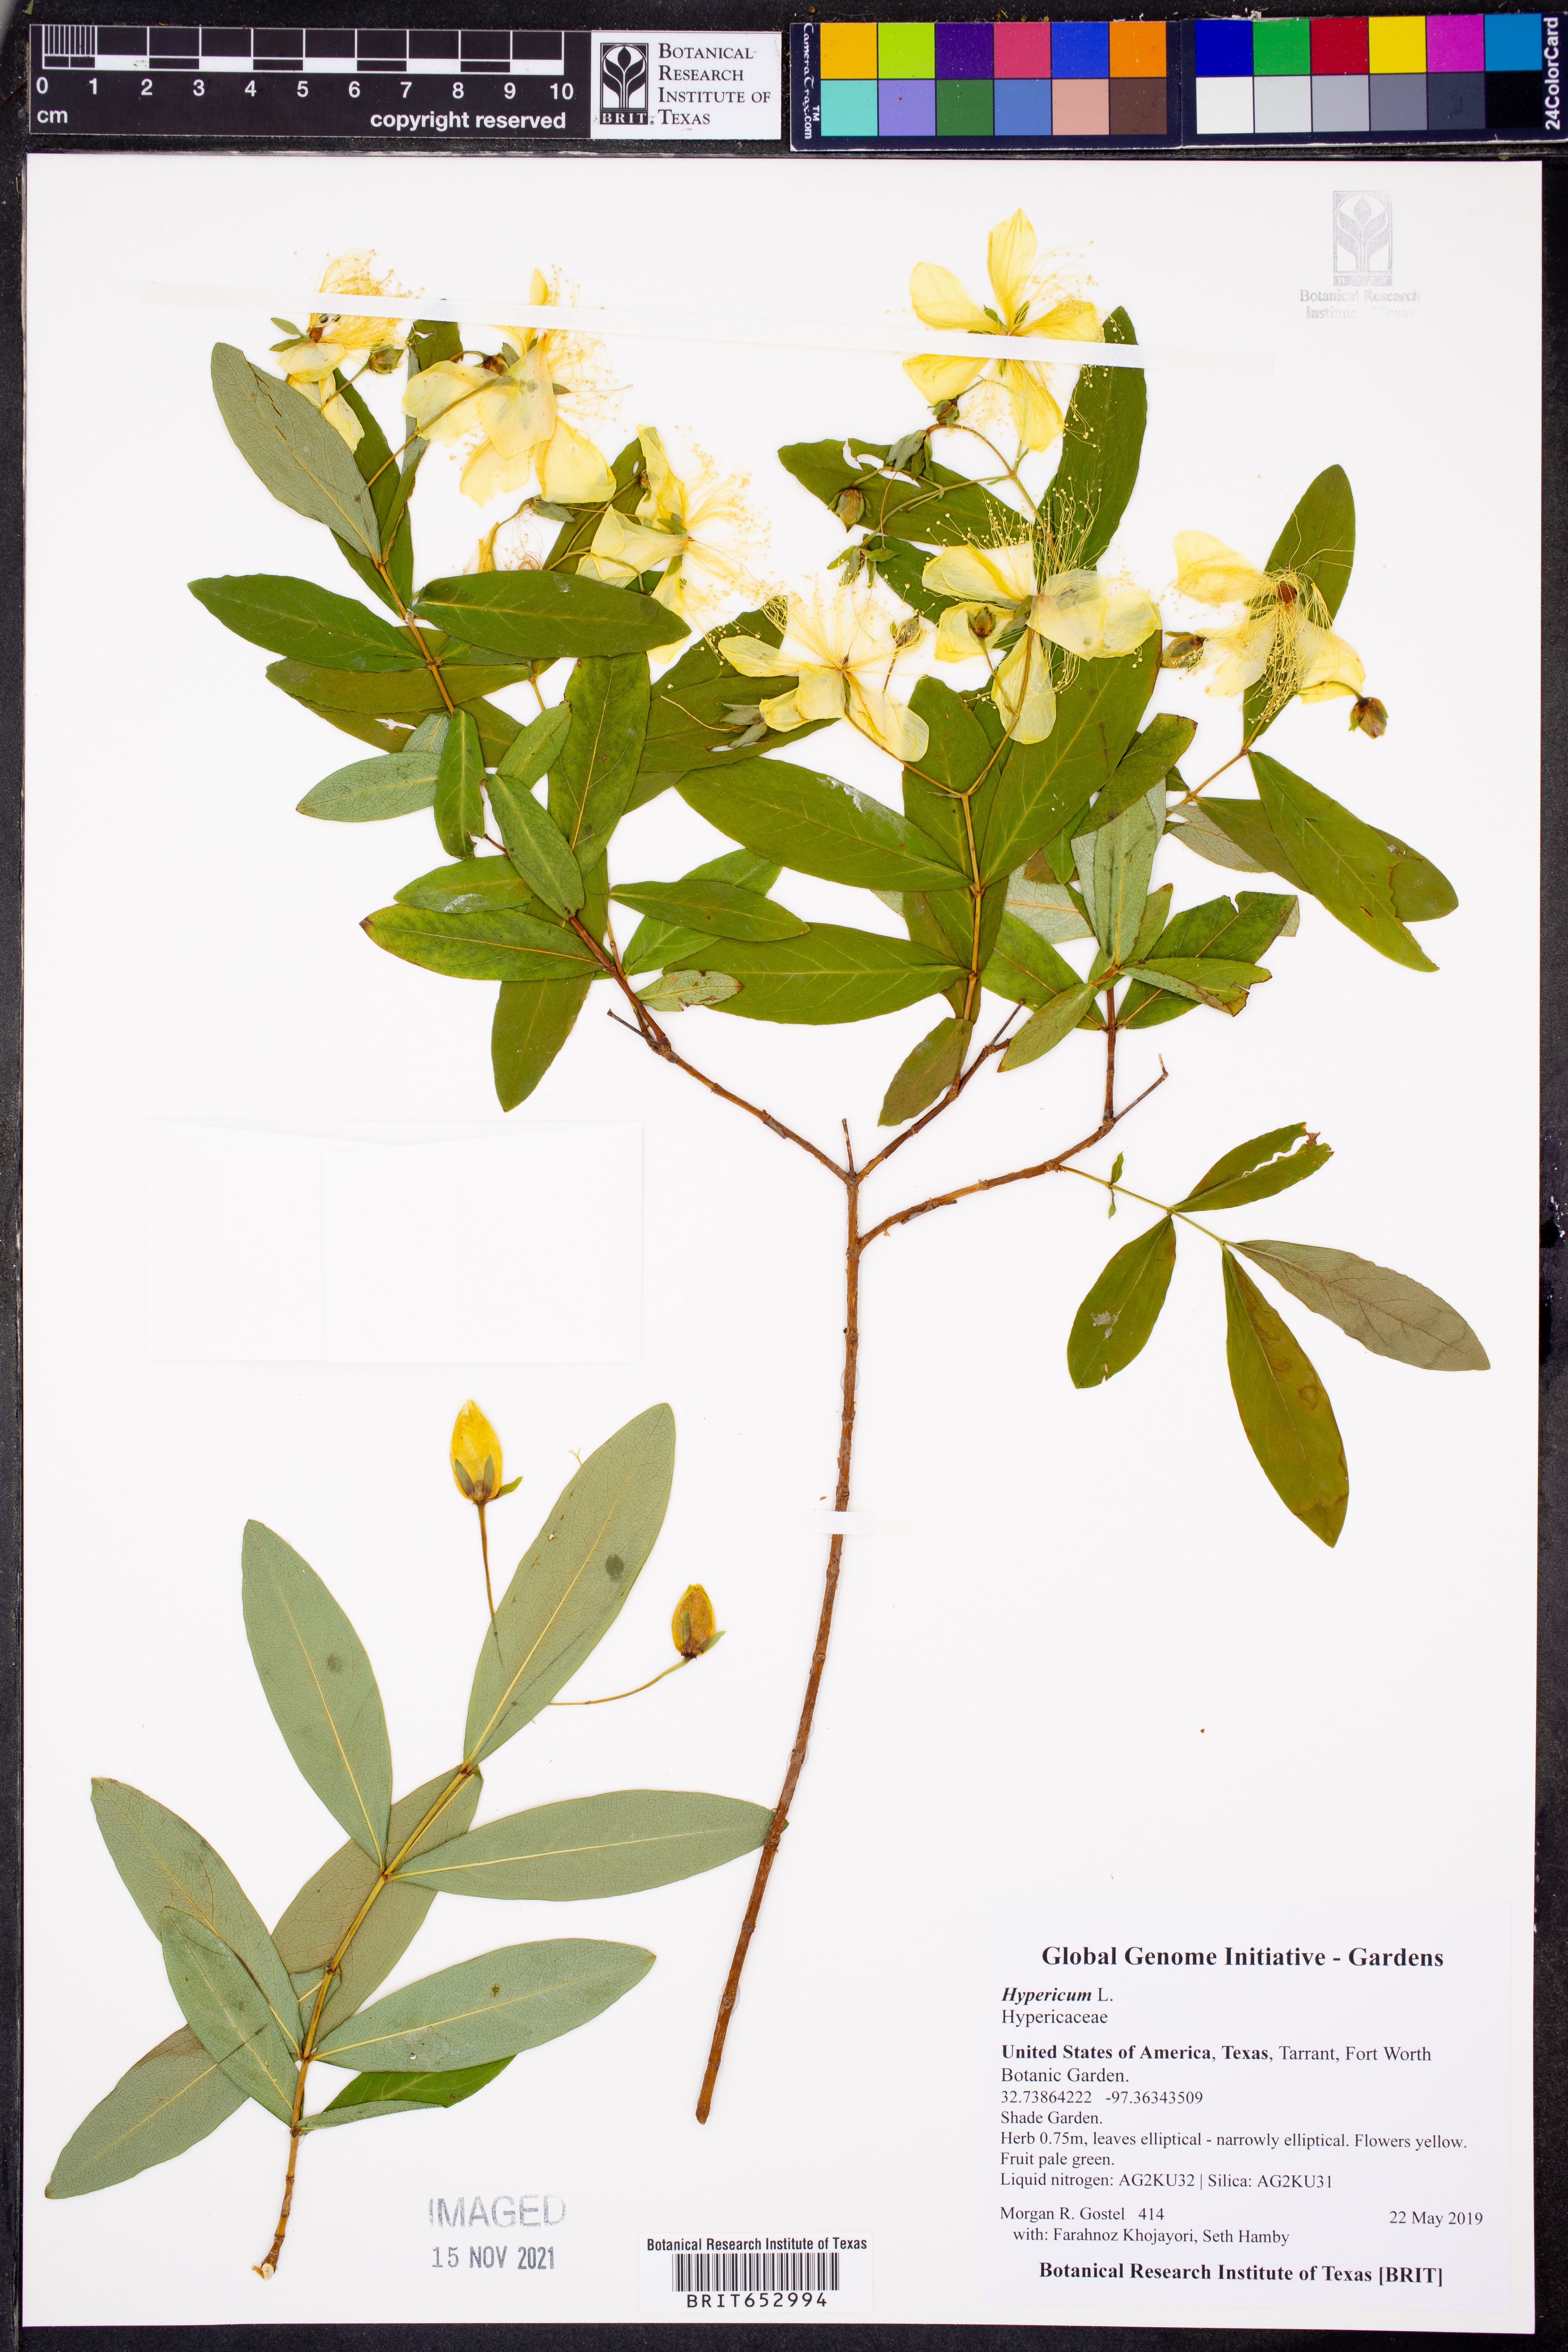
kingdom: Plantae
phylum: Tracheophyta
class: Magnoliopsida
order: Malpighiales
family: Hypericaceae
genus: Hypericum
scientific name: Hypericum
